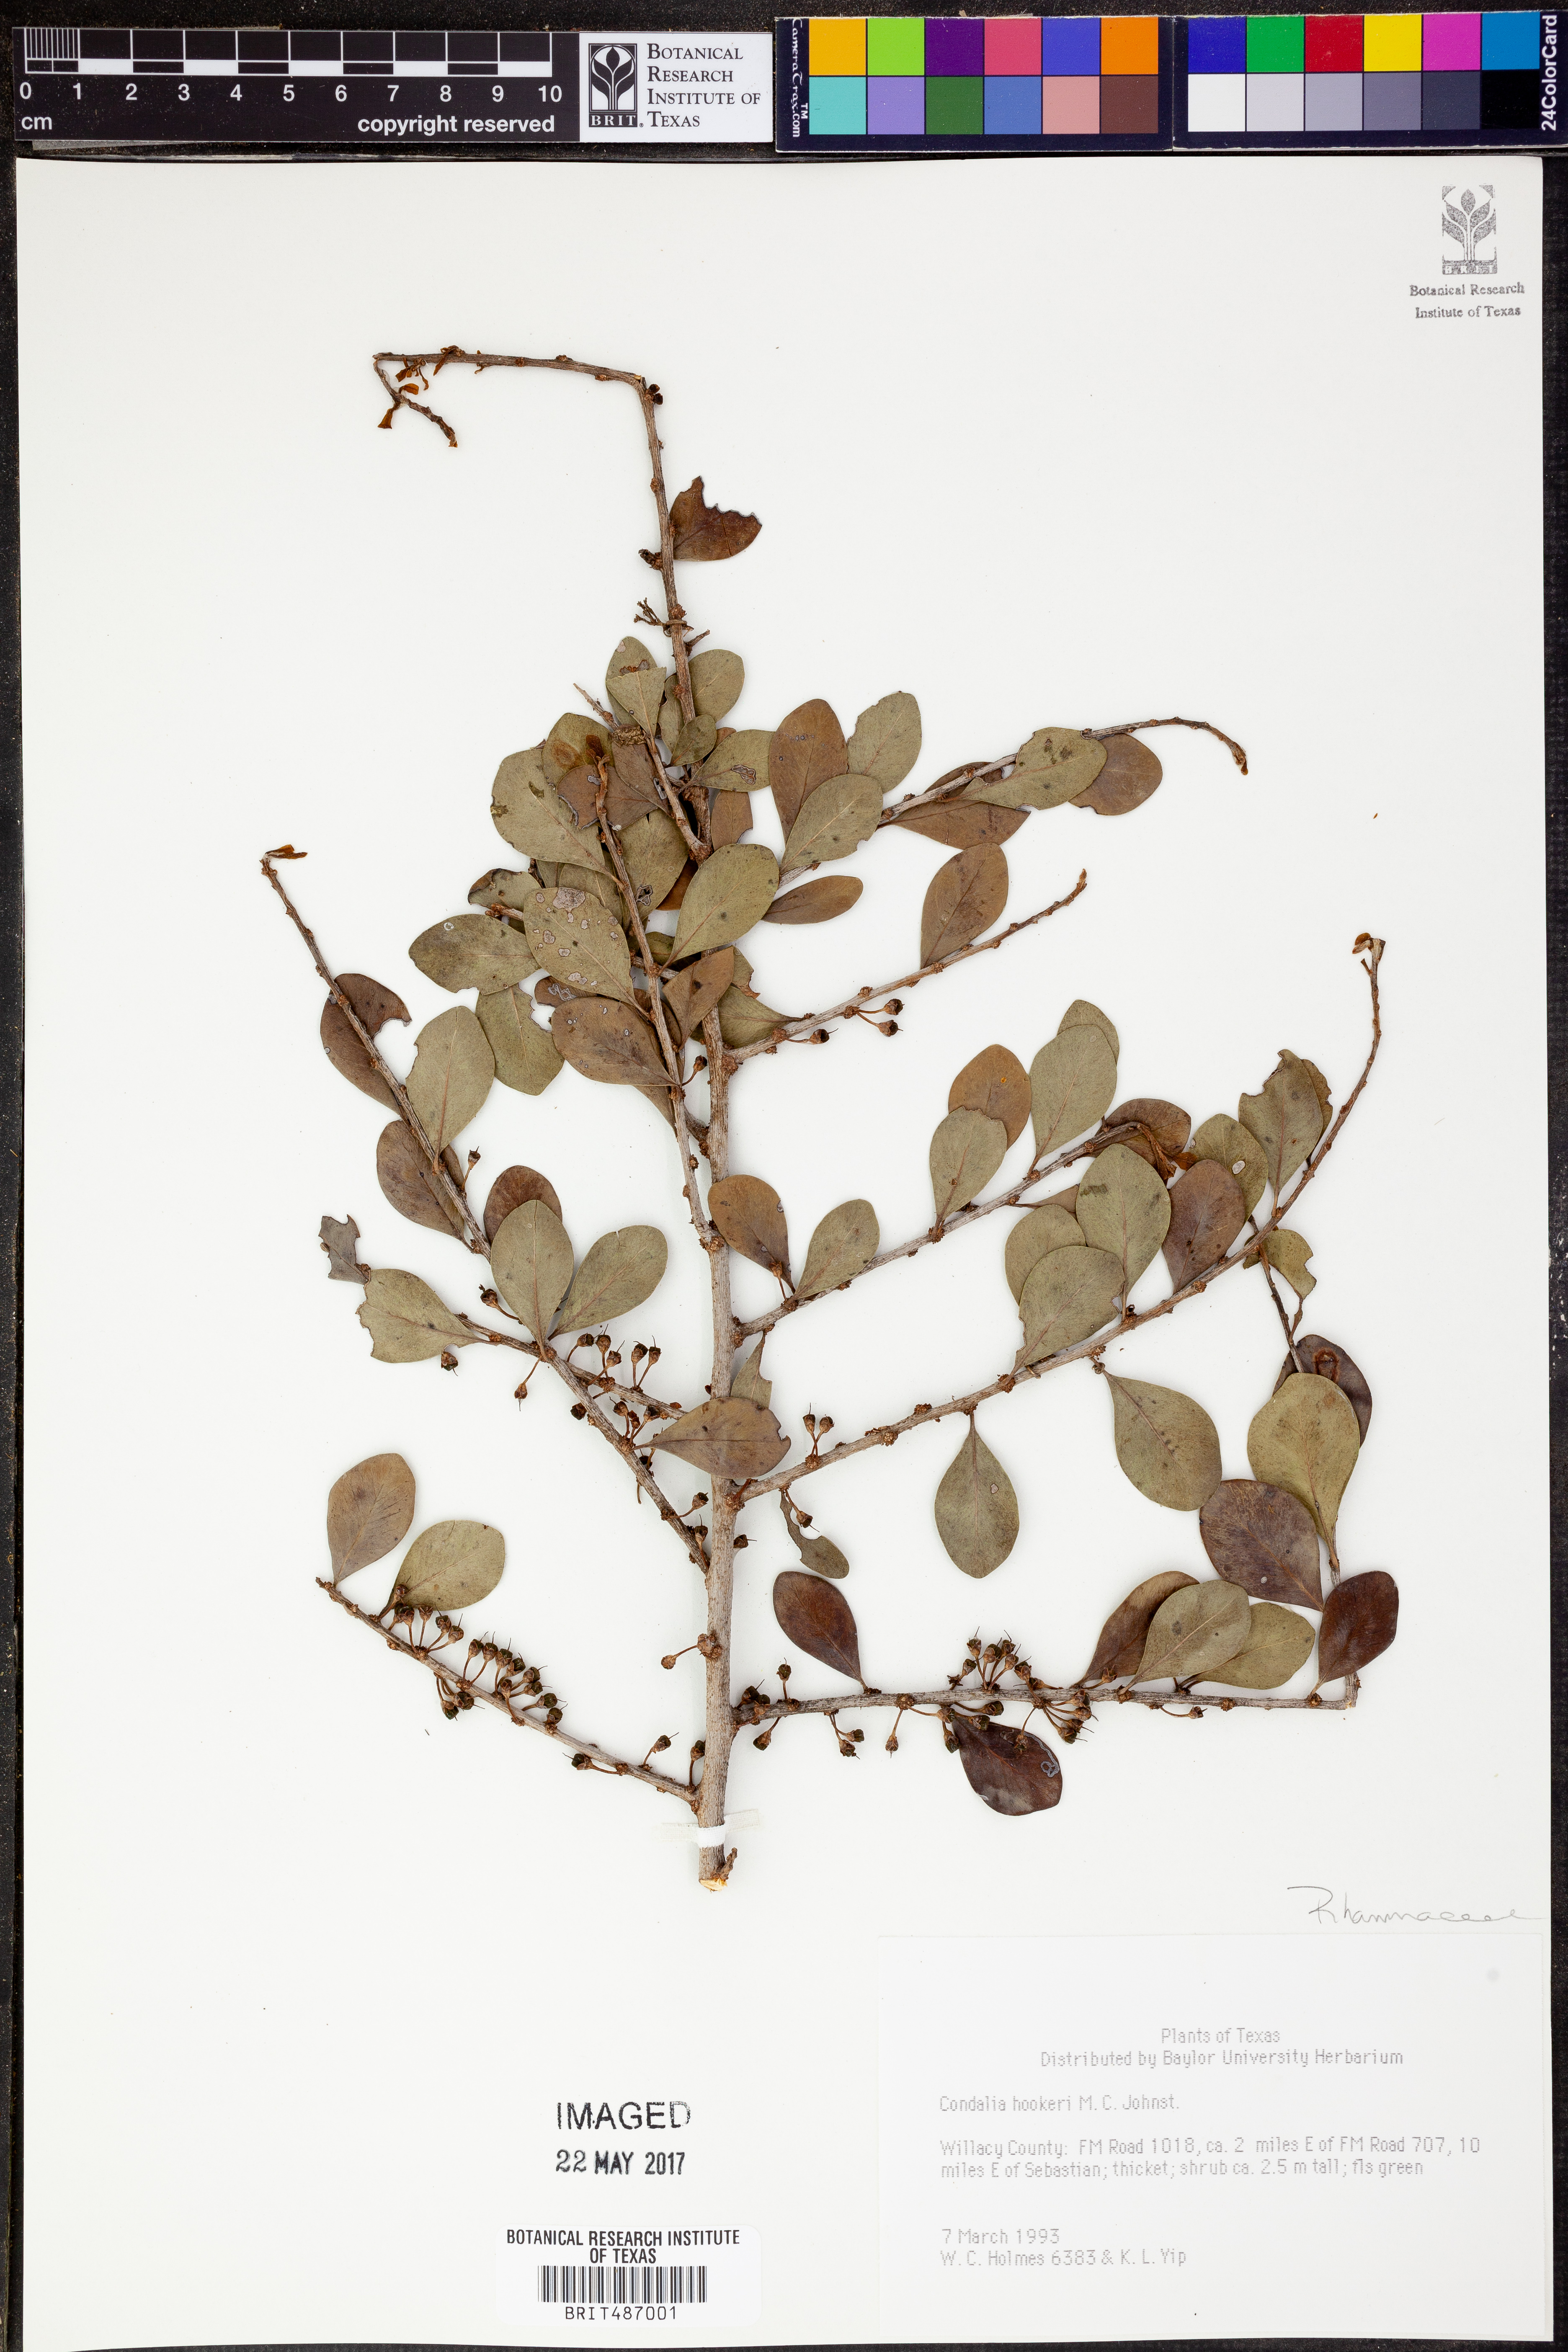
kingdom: Plantae
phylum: Tracheophyta
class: Magnoliopsida
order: Rosales
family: Rhamnaceae
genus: Condalia
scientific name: Condalia hookeri
